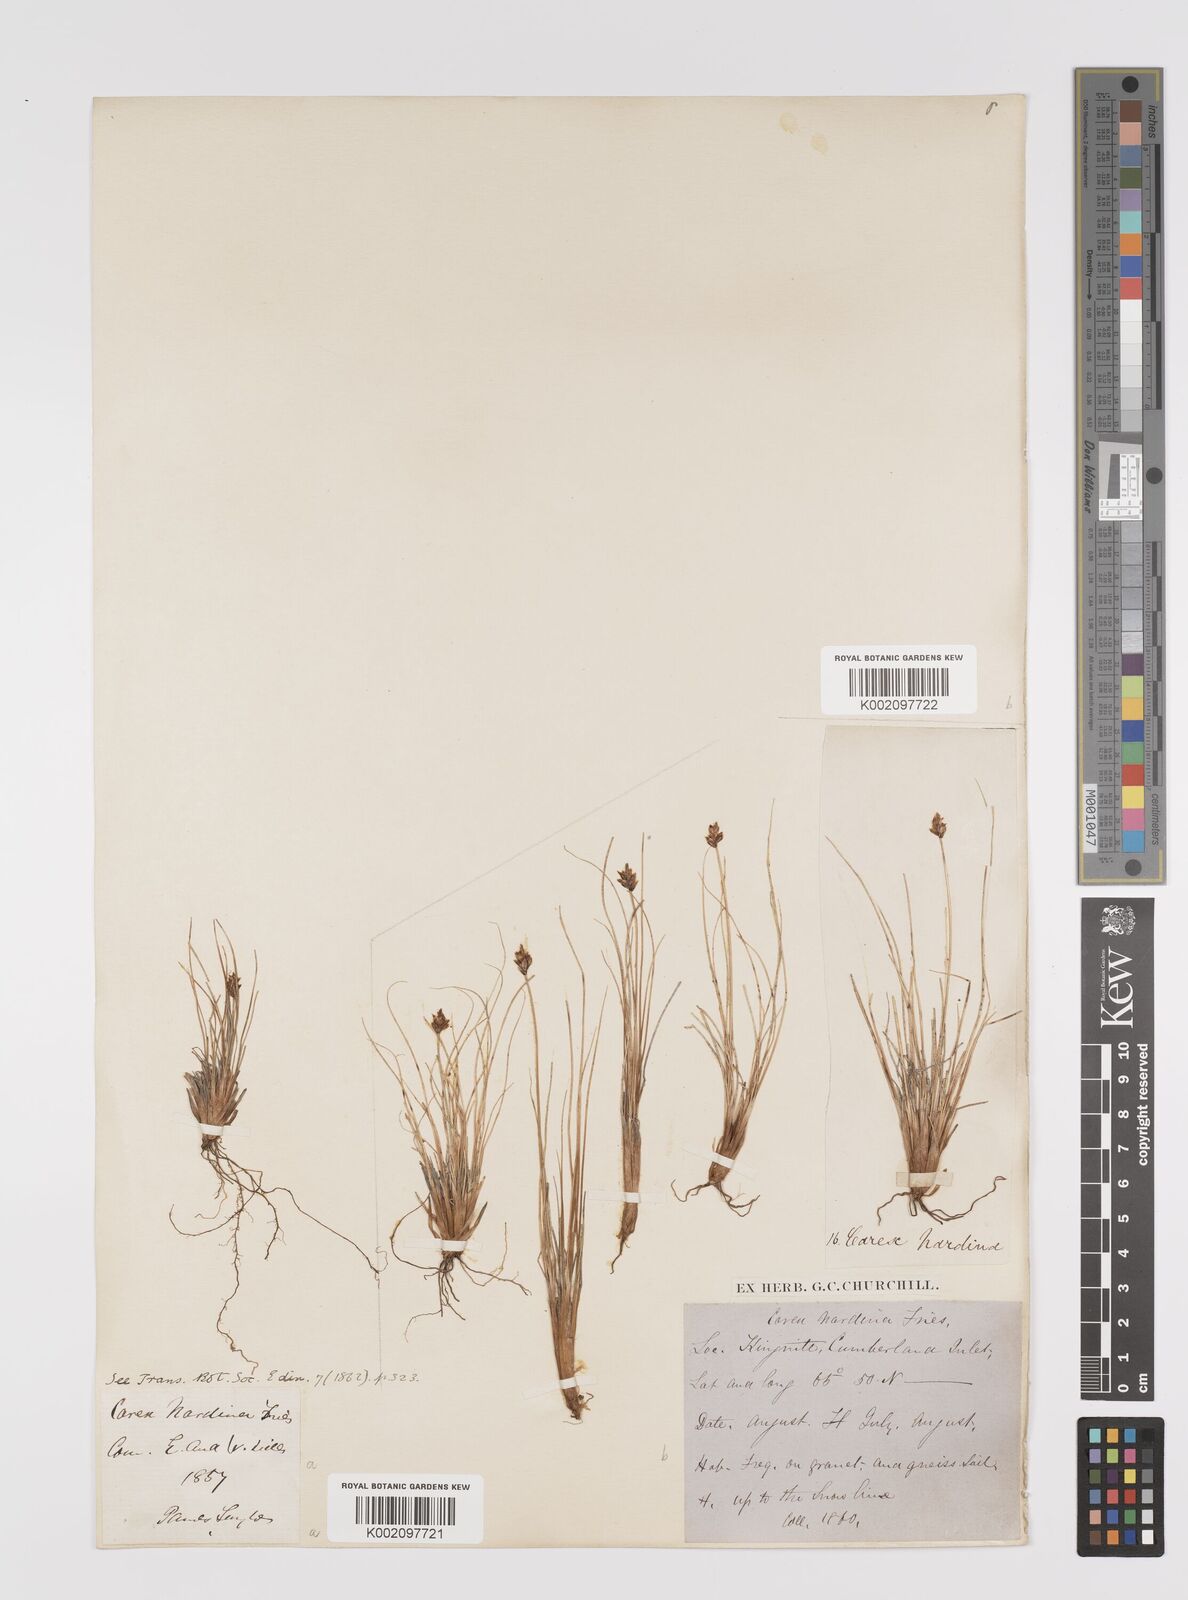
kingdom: Plantae
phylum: Tracheophyta
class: Liliopsida
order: Poales
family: Cyperaceae
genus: Carex
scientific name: Carex nardina
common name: Nard sedge
